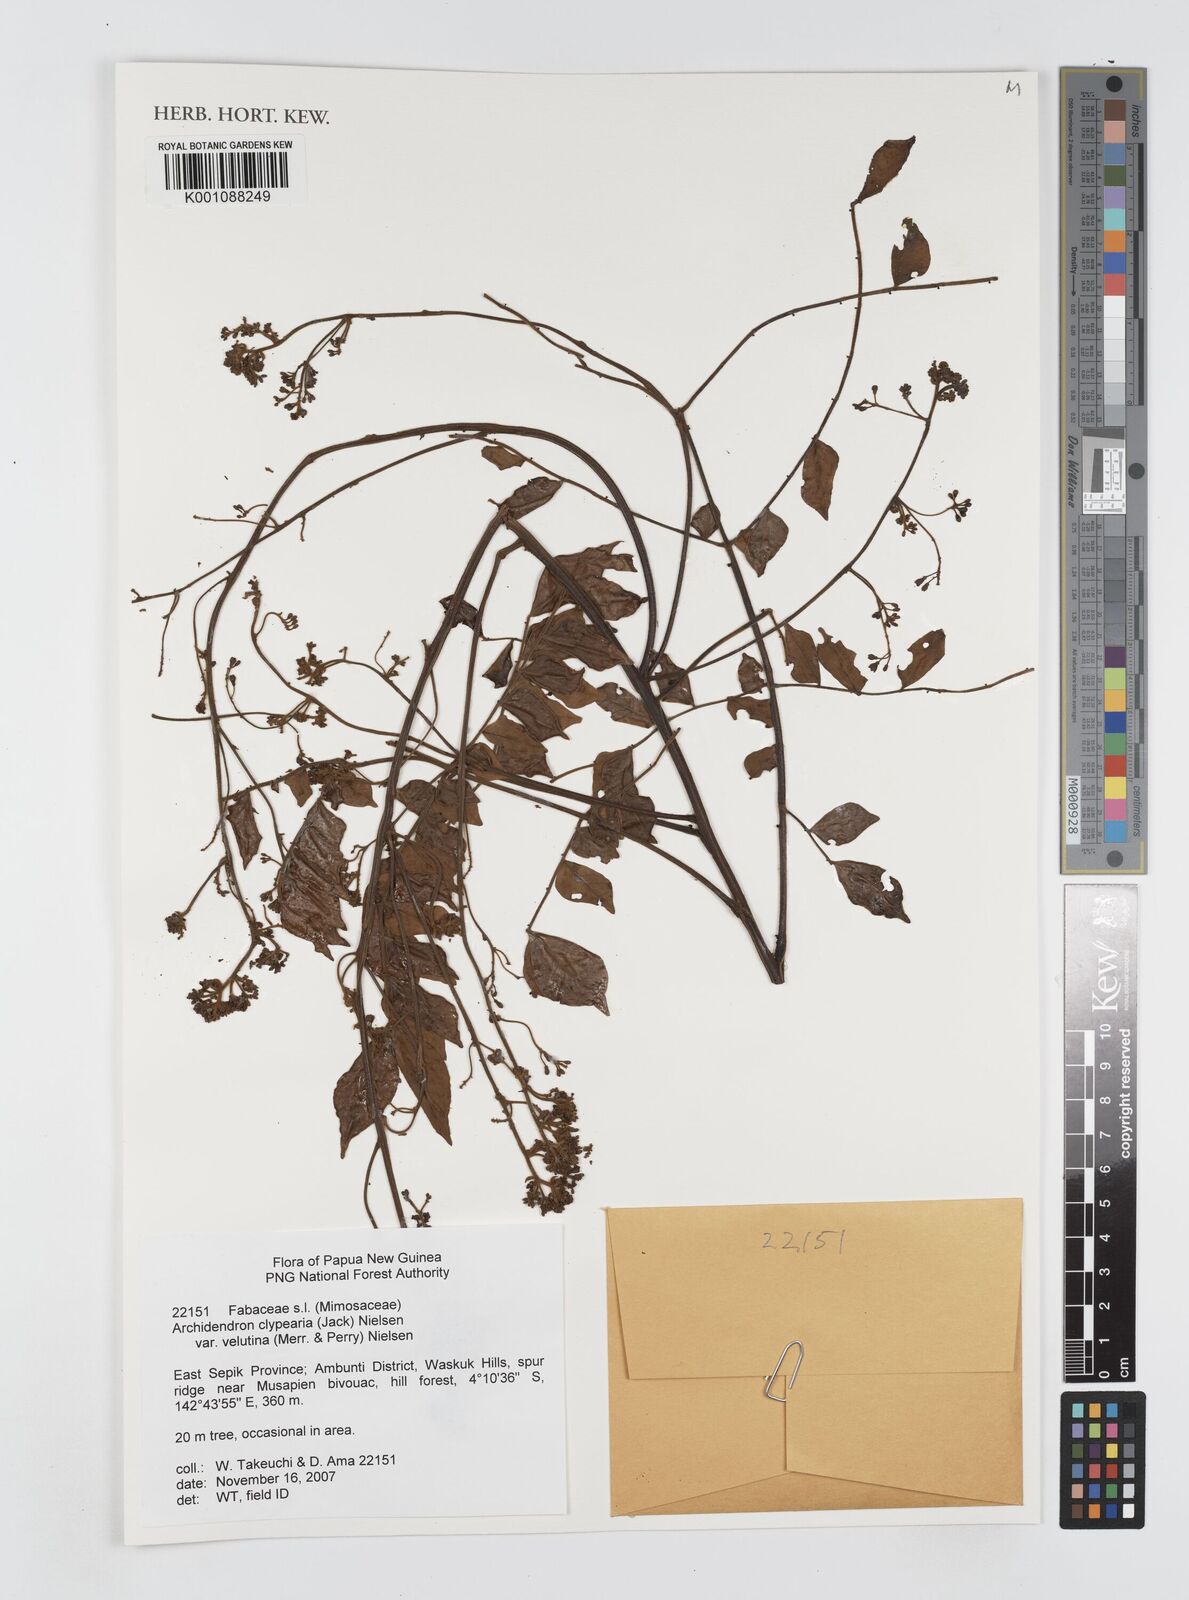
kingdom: Plantae
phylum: Tracheophyta
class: Magnoliopsida
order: Fabales
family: Fabaceae
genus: Archidendron
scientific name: Archidendron clypearia
